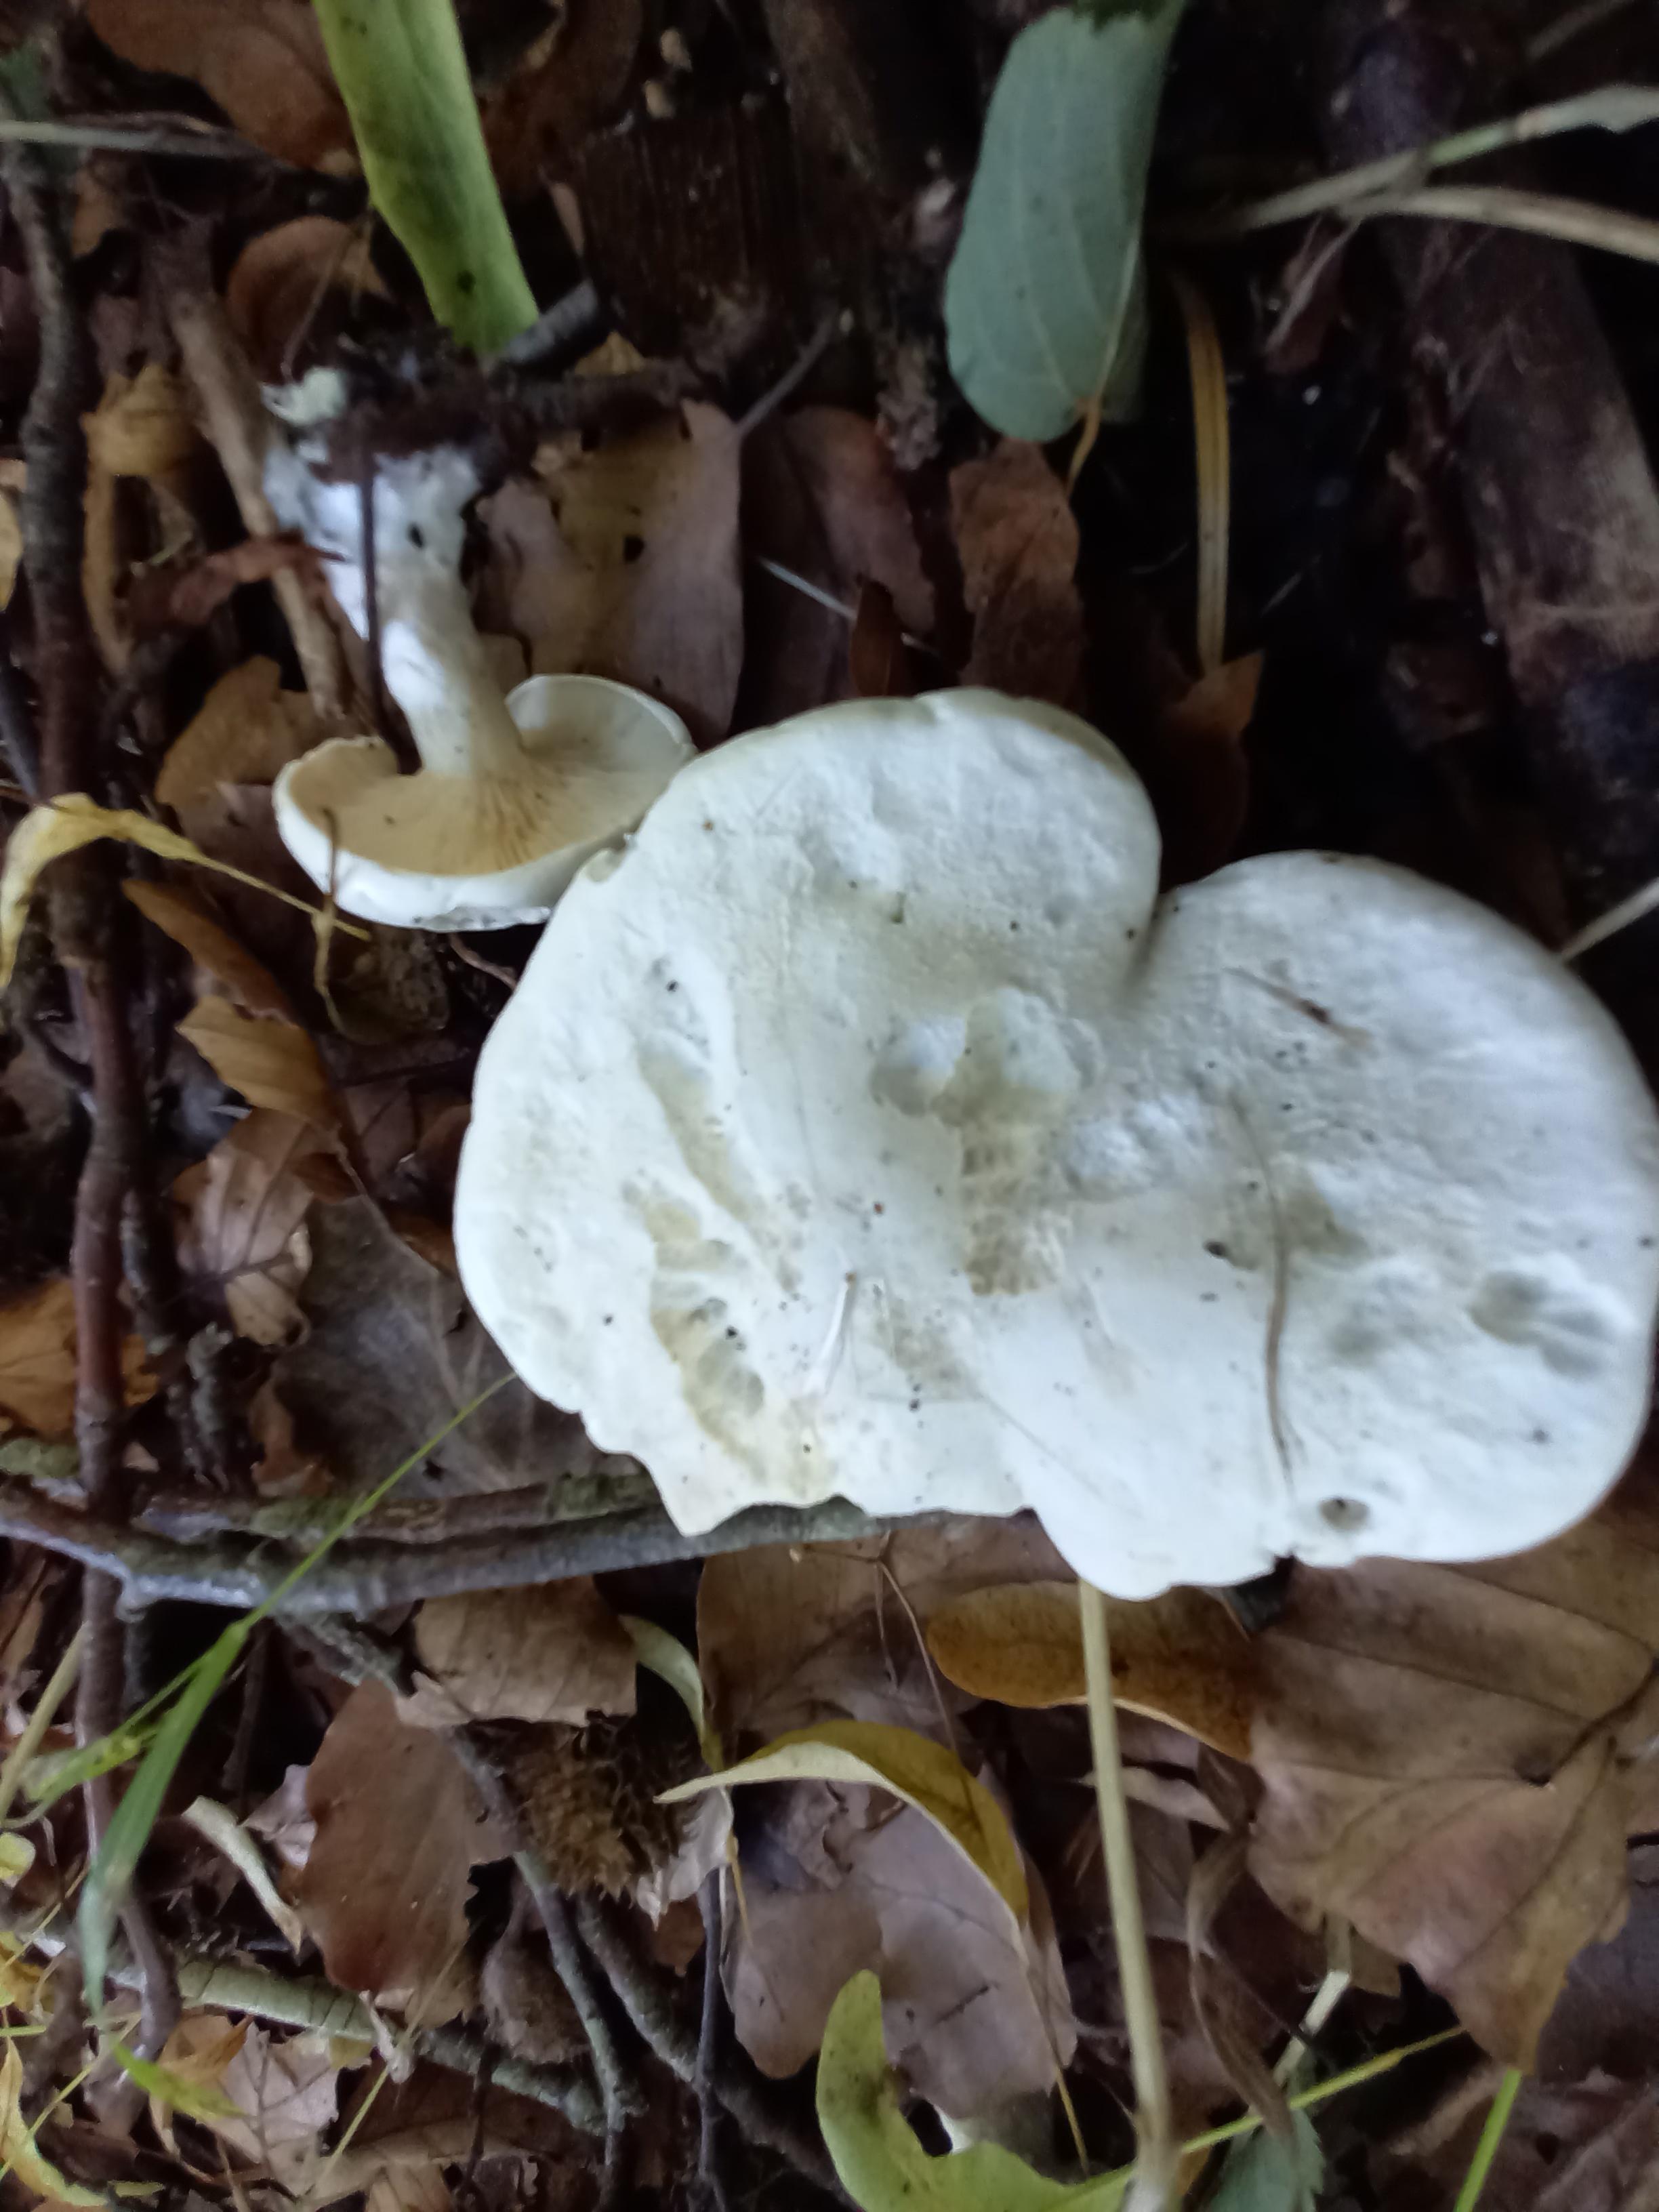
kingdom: Fungi
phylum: Basidiomycota
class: Agaricomycetes
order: Agaricales
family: Entolomataceae
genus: Clitopilus
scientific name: Clitopilus prunulus
